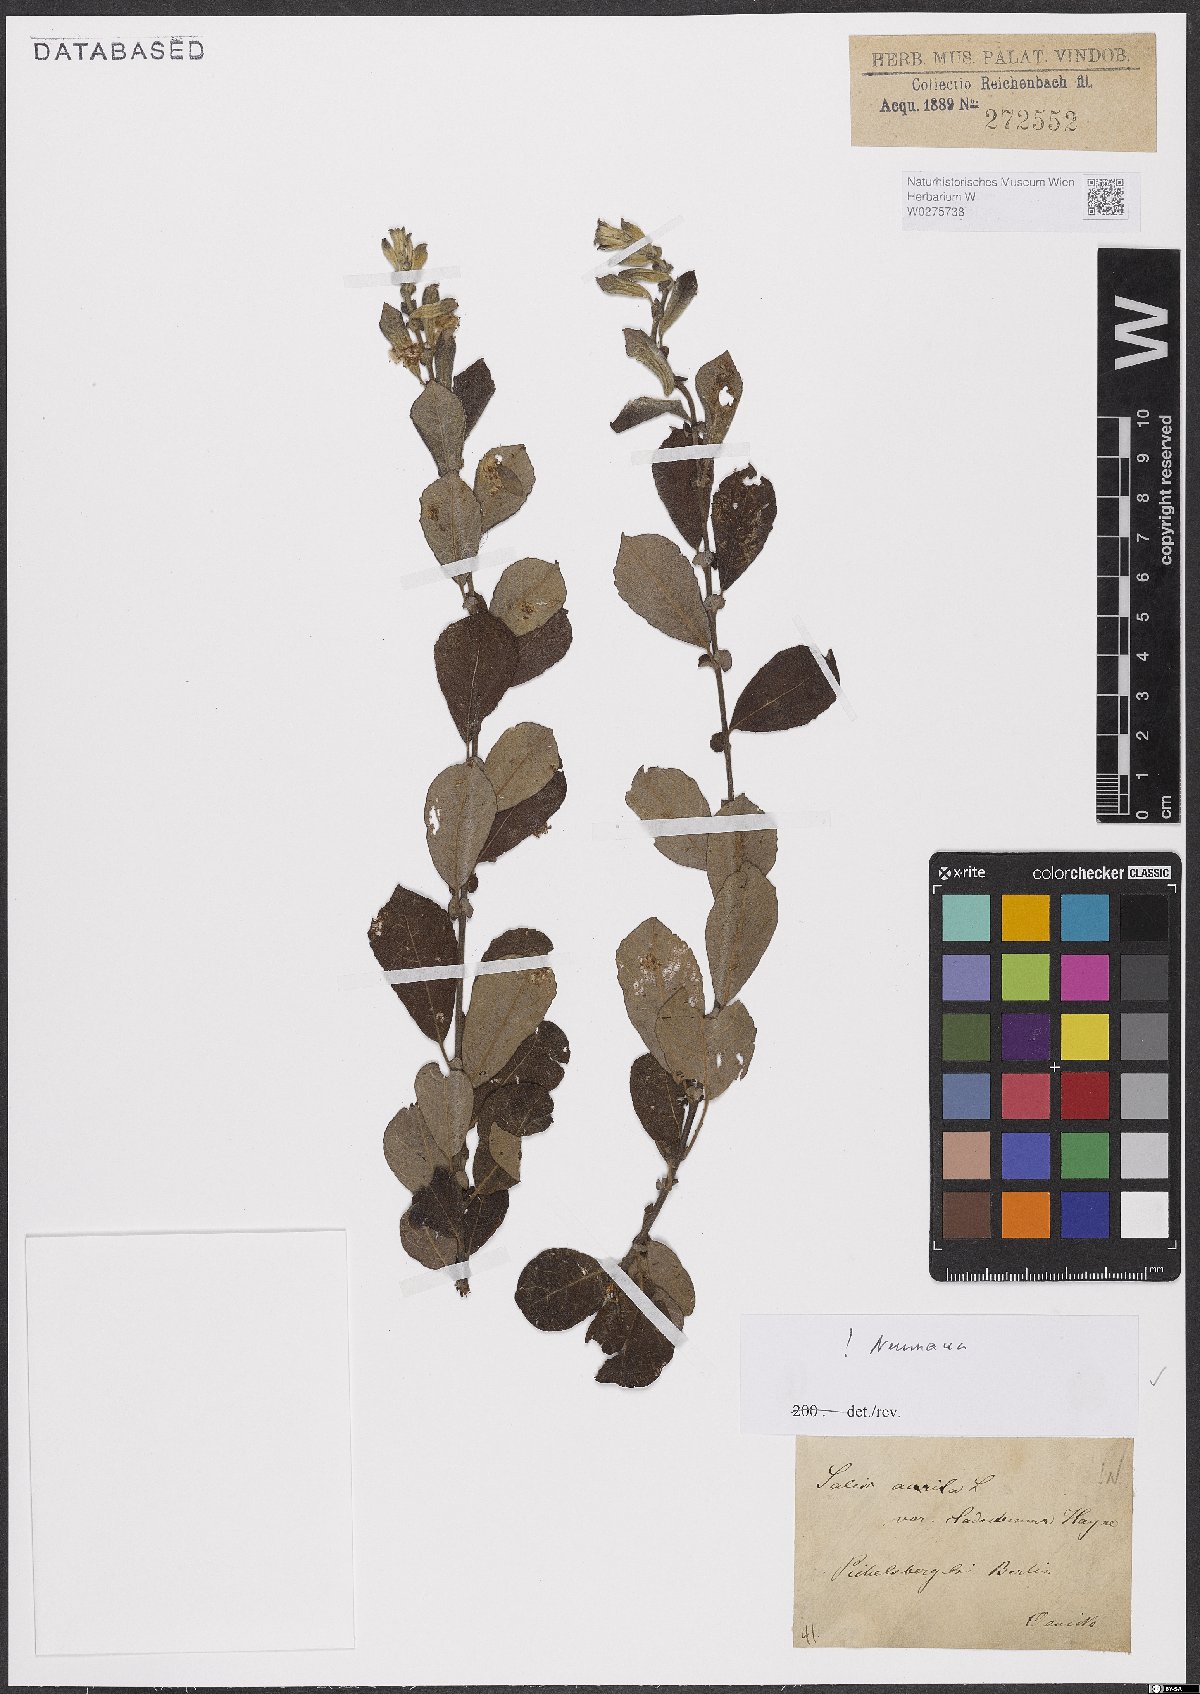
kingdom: Plantae
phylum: Tracheophyta
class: Magnoliopsida
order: Malpighiales
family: Salicaceae
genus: Salix
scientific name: Salix aurita
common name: Eared willow
